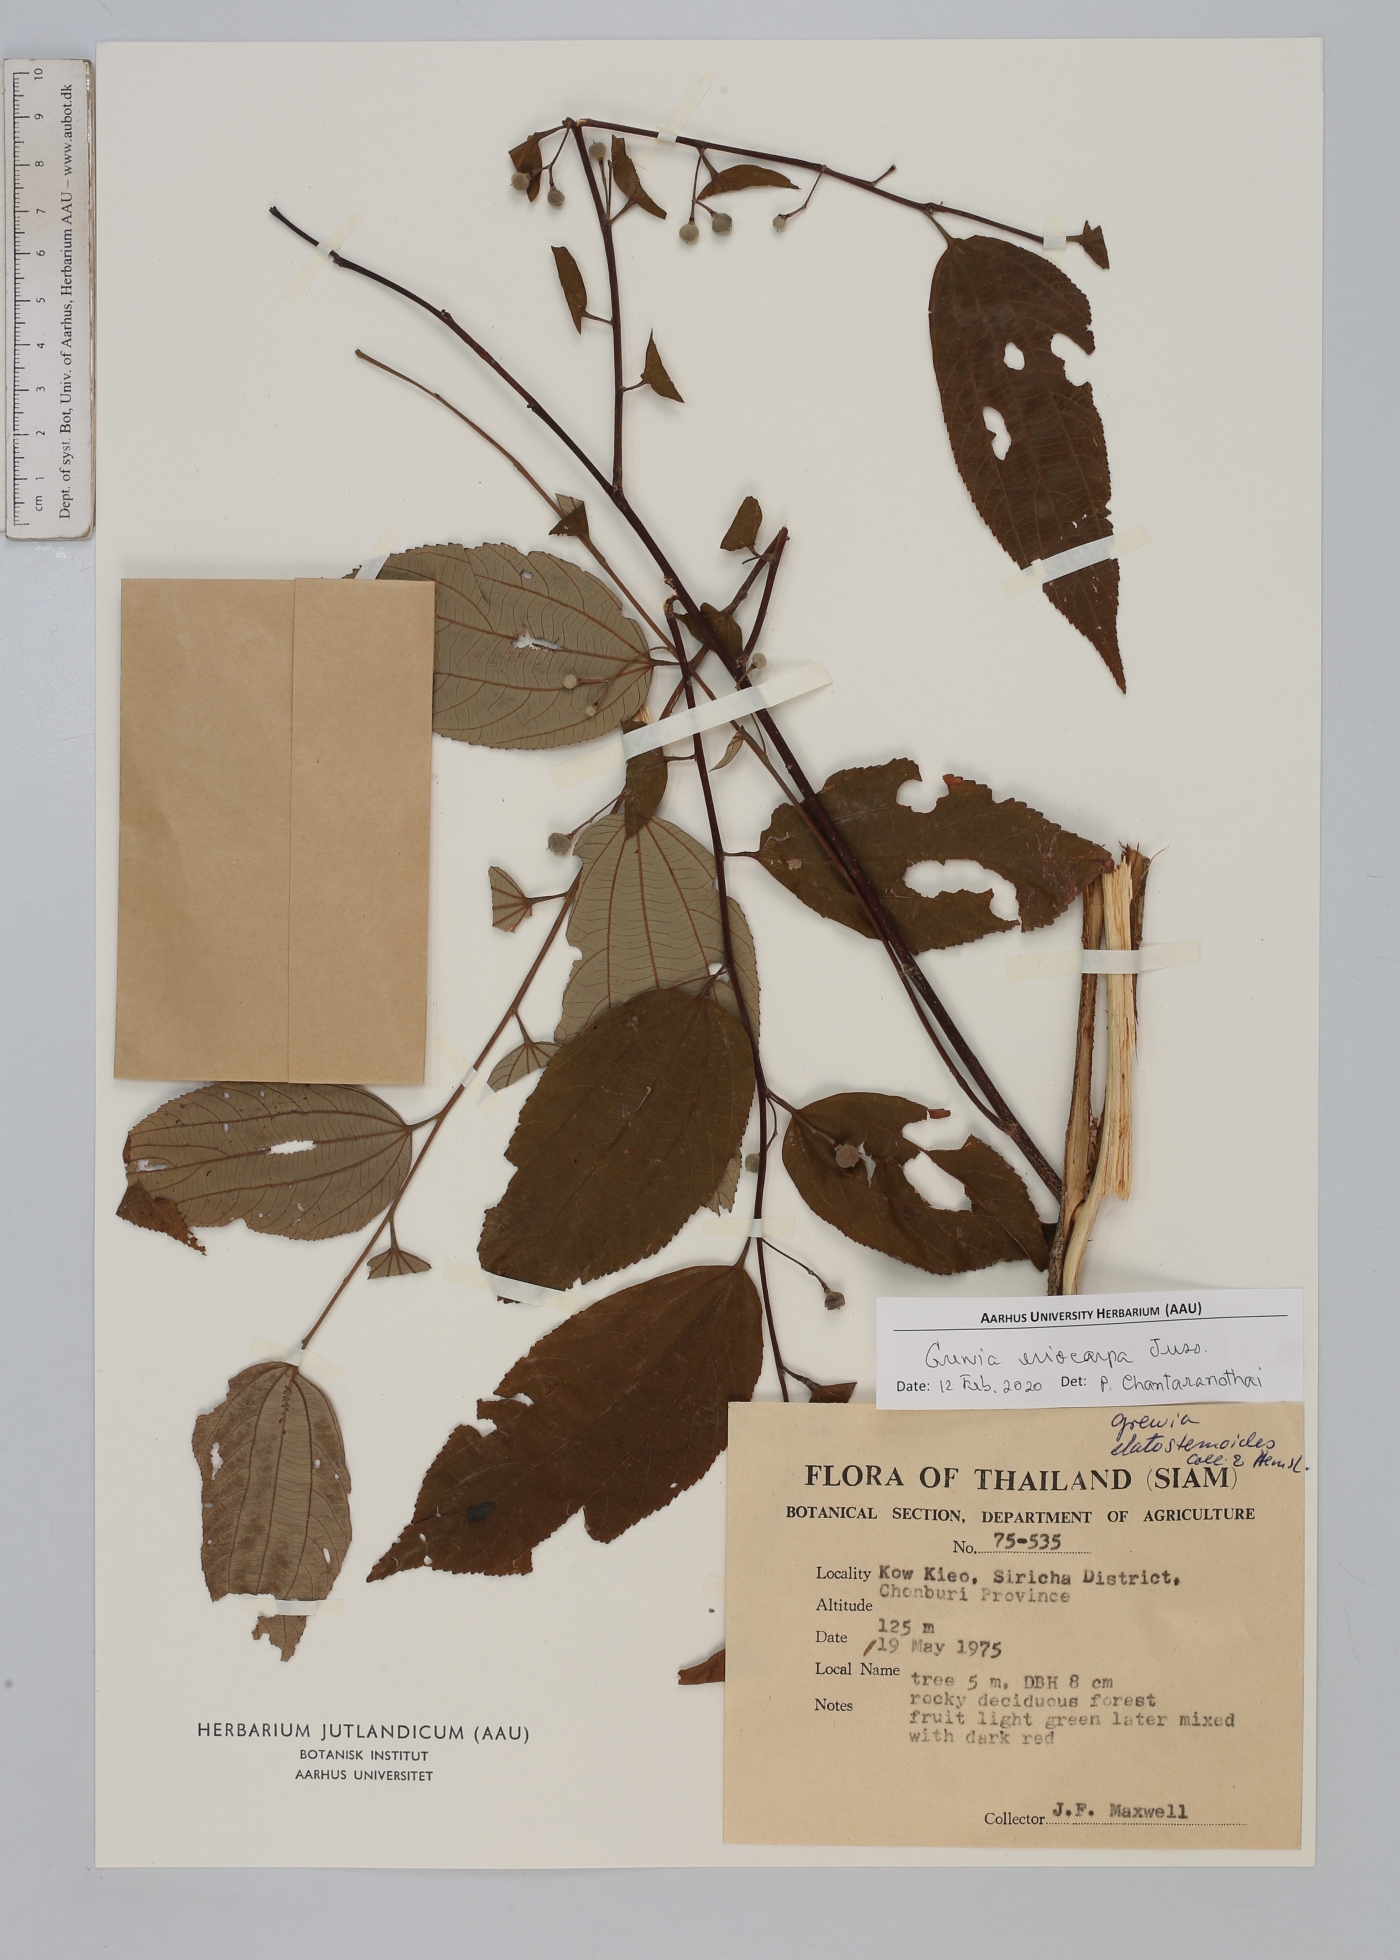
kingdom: Plantae
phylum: Tracheophyta
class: Magnoliopsida
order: Malvales
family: Malvaceae
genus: Grewia
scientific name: Grewia eriocarpa
